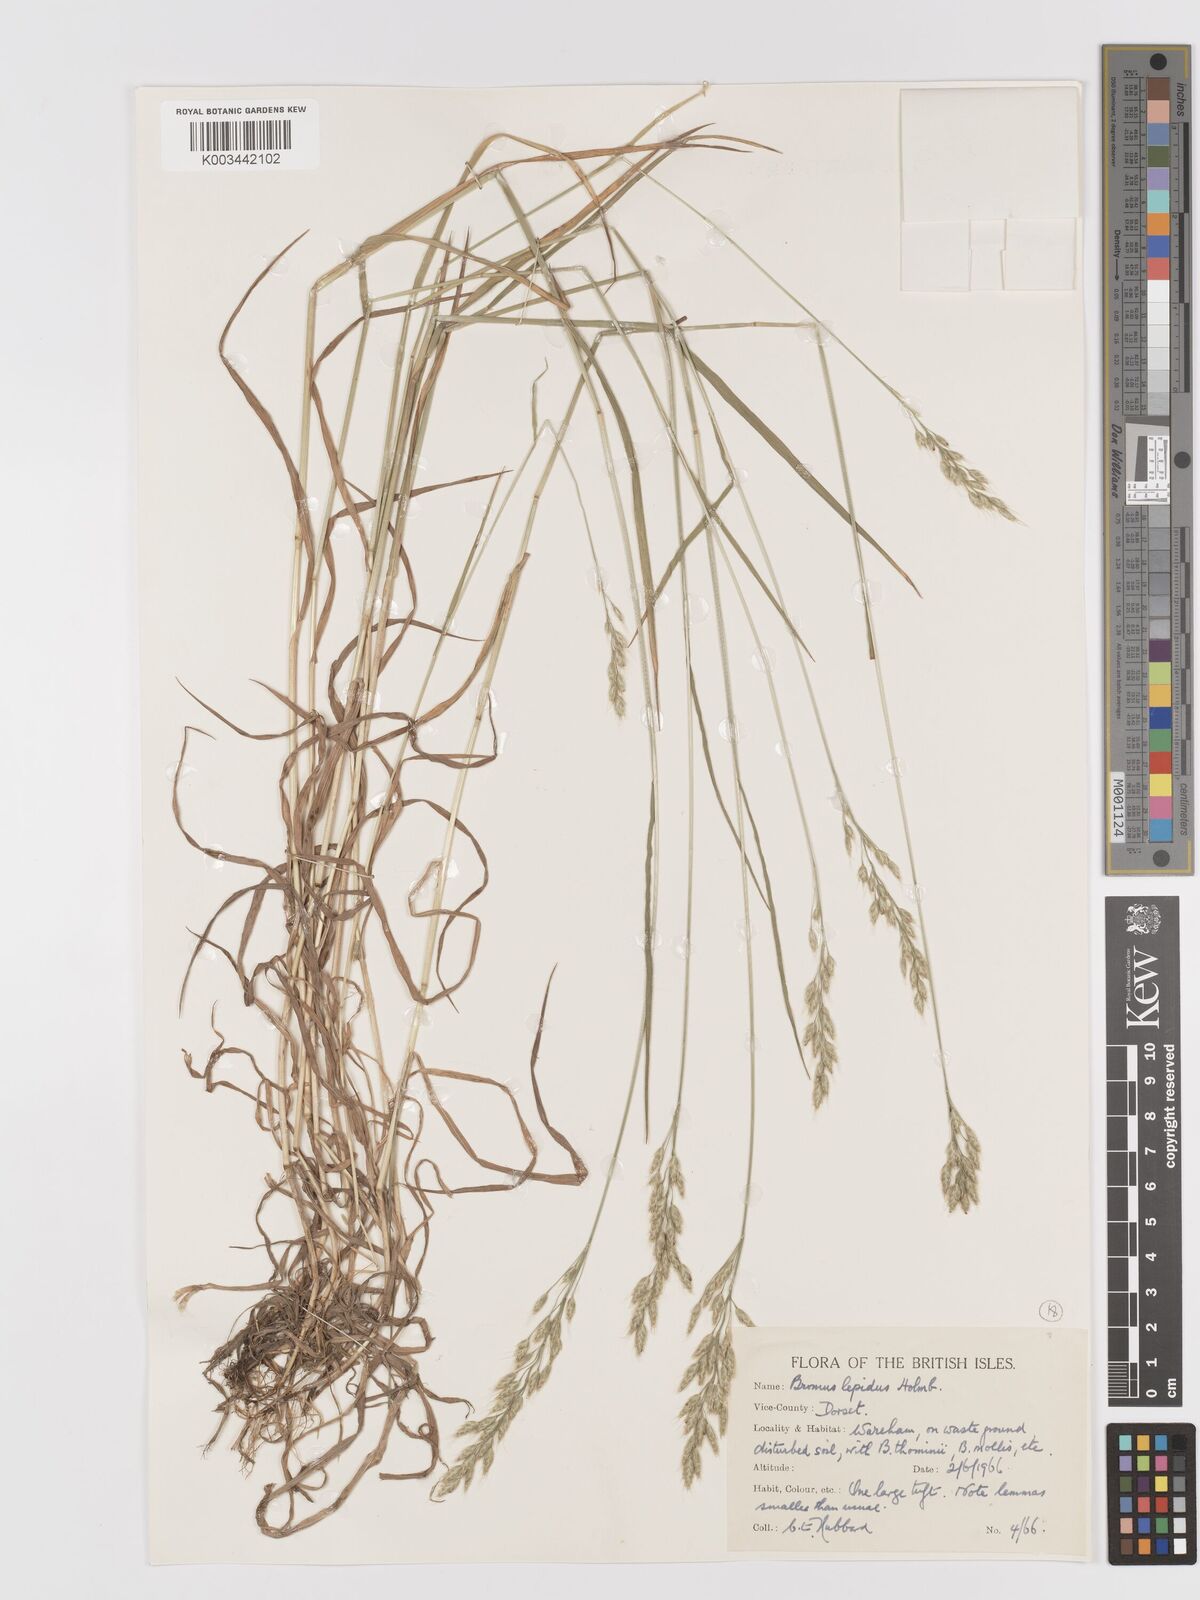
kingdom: Plantae
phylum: Tracheophyta
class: Liliopsida
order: Poales
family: Poaceae
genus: Bromus
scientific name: Bromus lepidus
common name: Slender soft-brome
